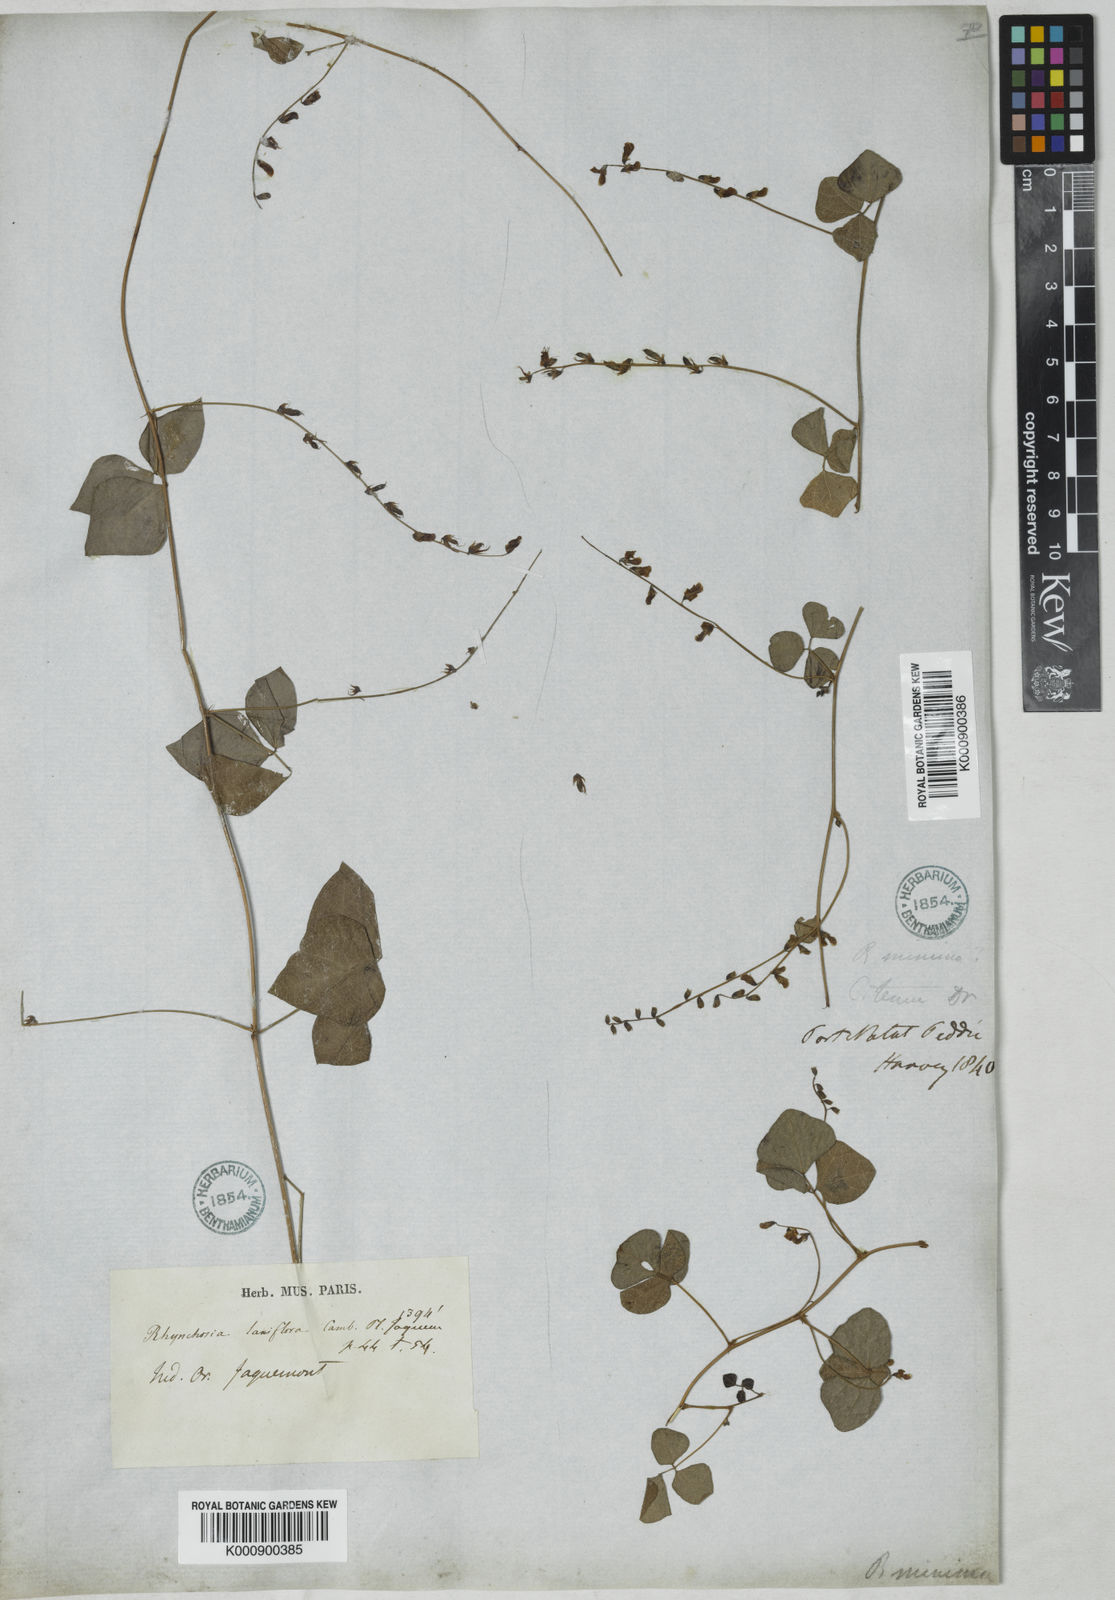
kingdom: Plantae
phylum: Tracheophyta
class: Magnoliopsida
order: Fabales
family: Fabaceae
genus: Rhynchosia
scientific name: Rhynchosia minima
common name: Least snoutbean
